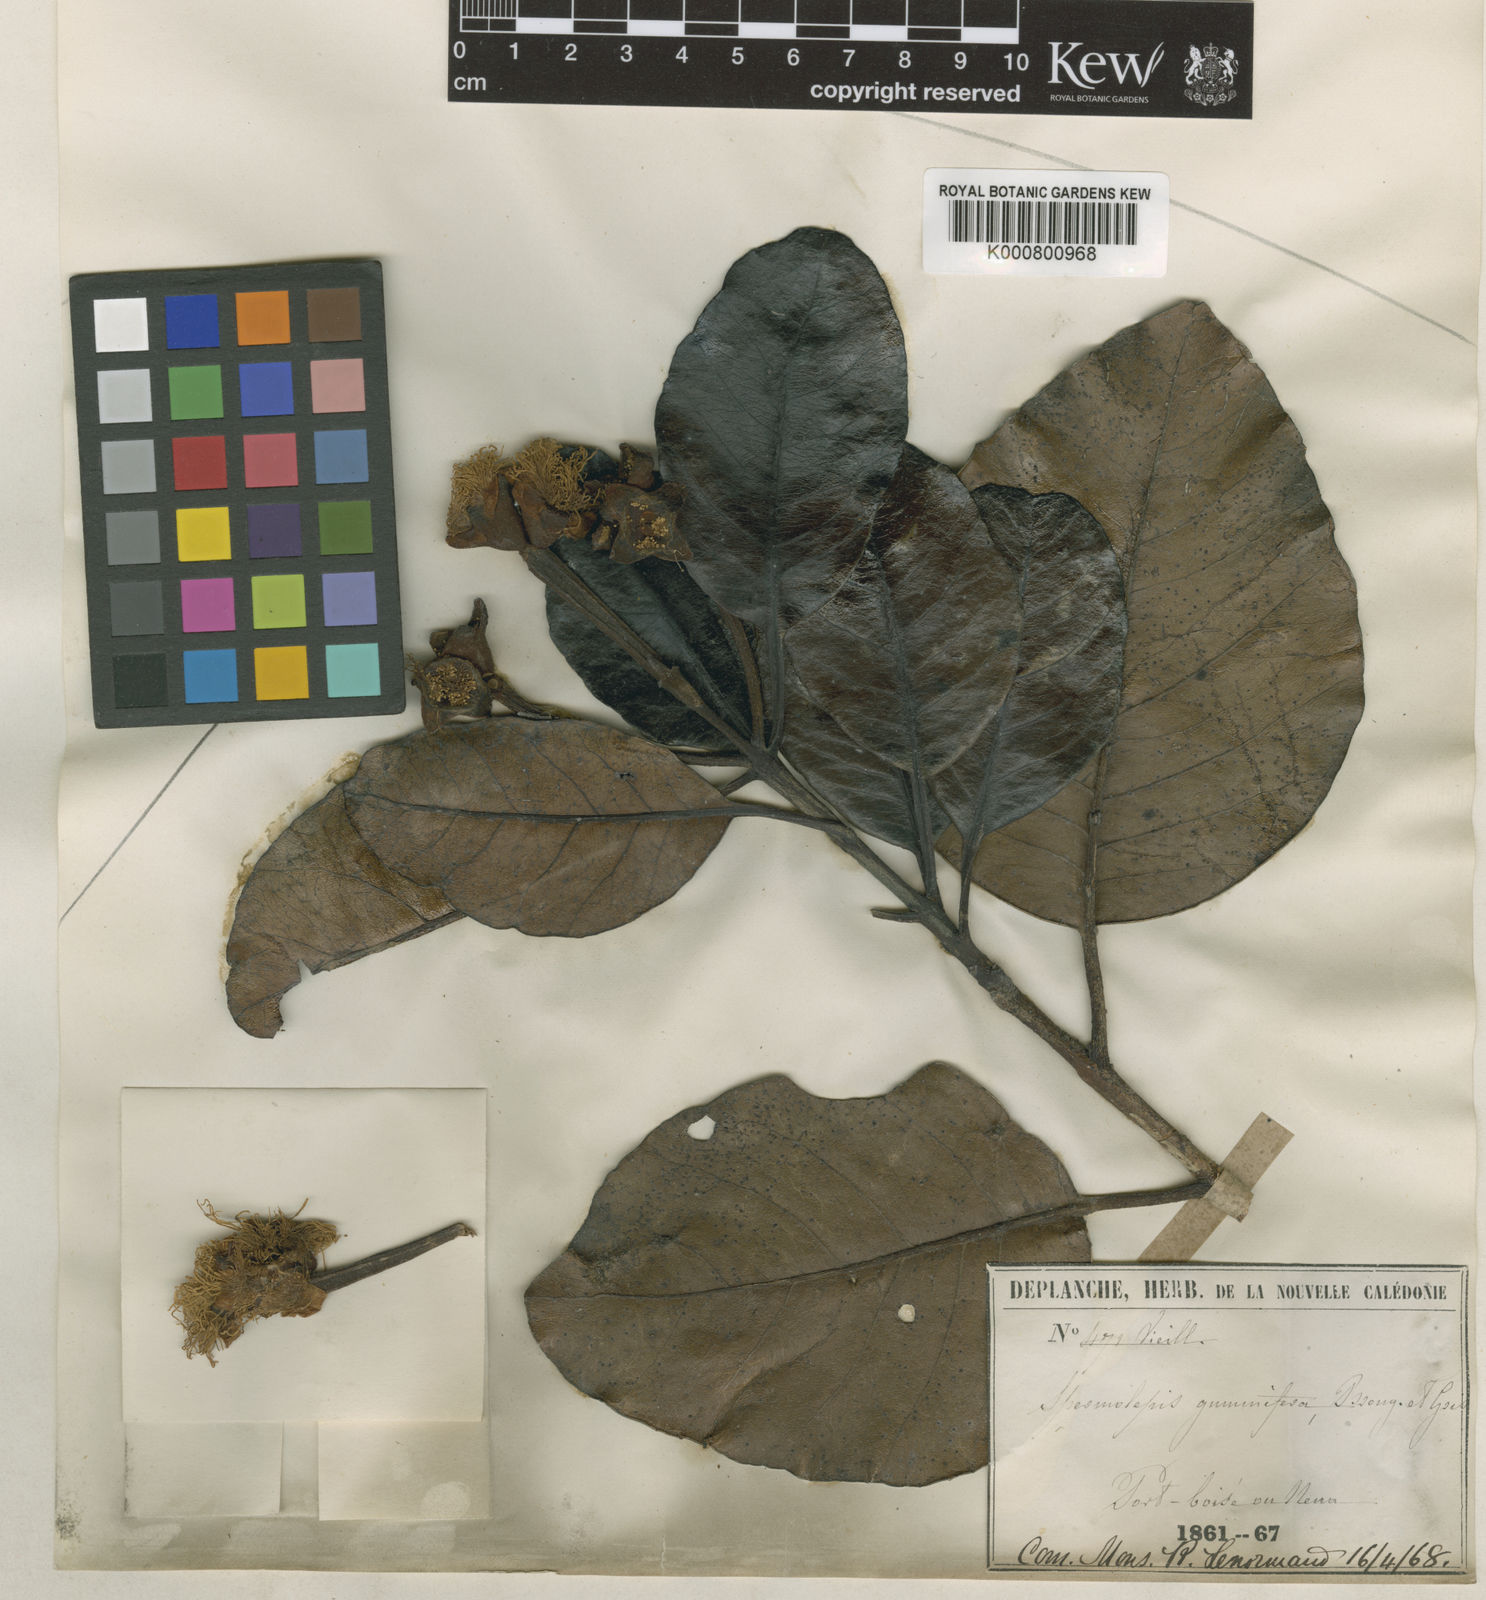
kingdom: Plantae
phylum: Tracheophyta
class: Magnoliopsida
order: Myrtales
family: Myrtaceae
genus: Arillastrum
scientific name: Arillastrum gummiferum
